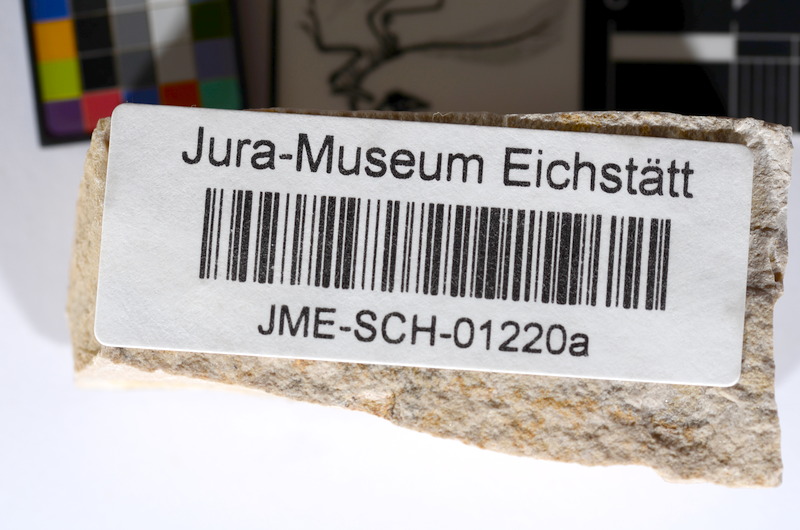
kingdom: Animalia
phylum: Chordata
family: Ascalaboidae
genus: Tharsis
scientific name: Tharsis dubius
